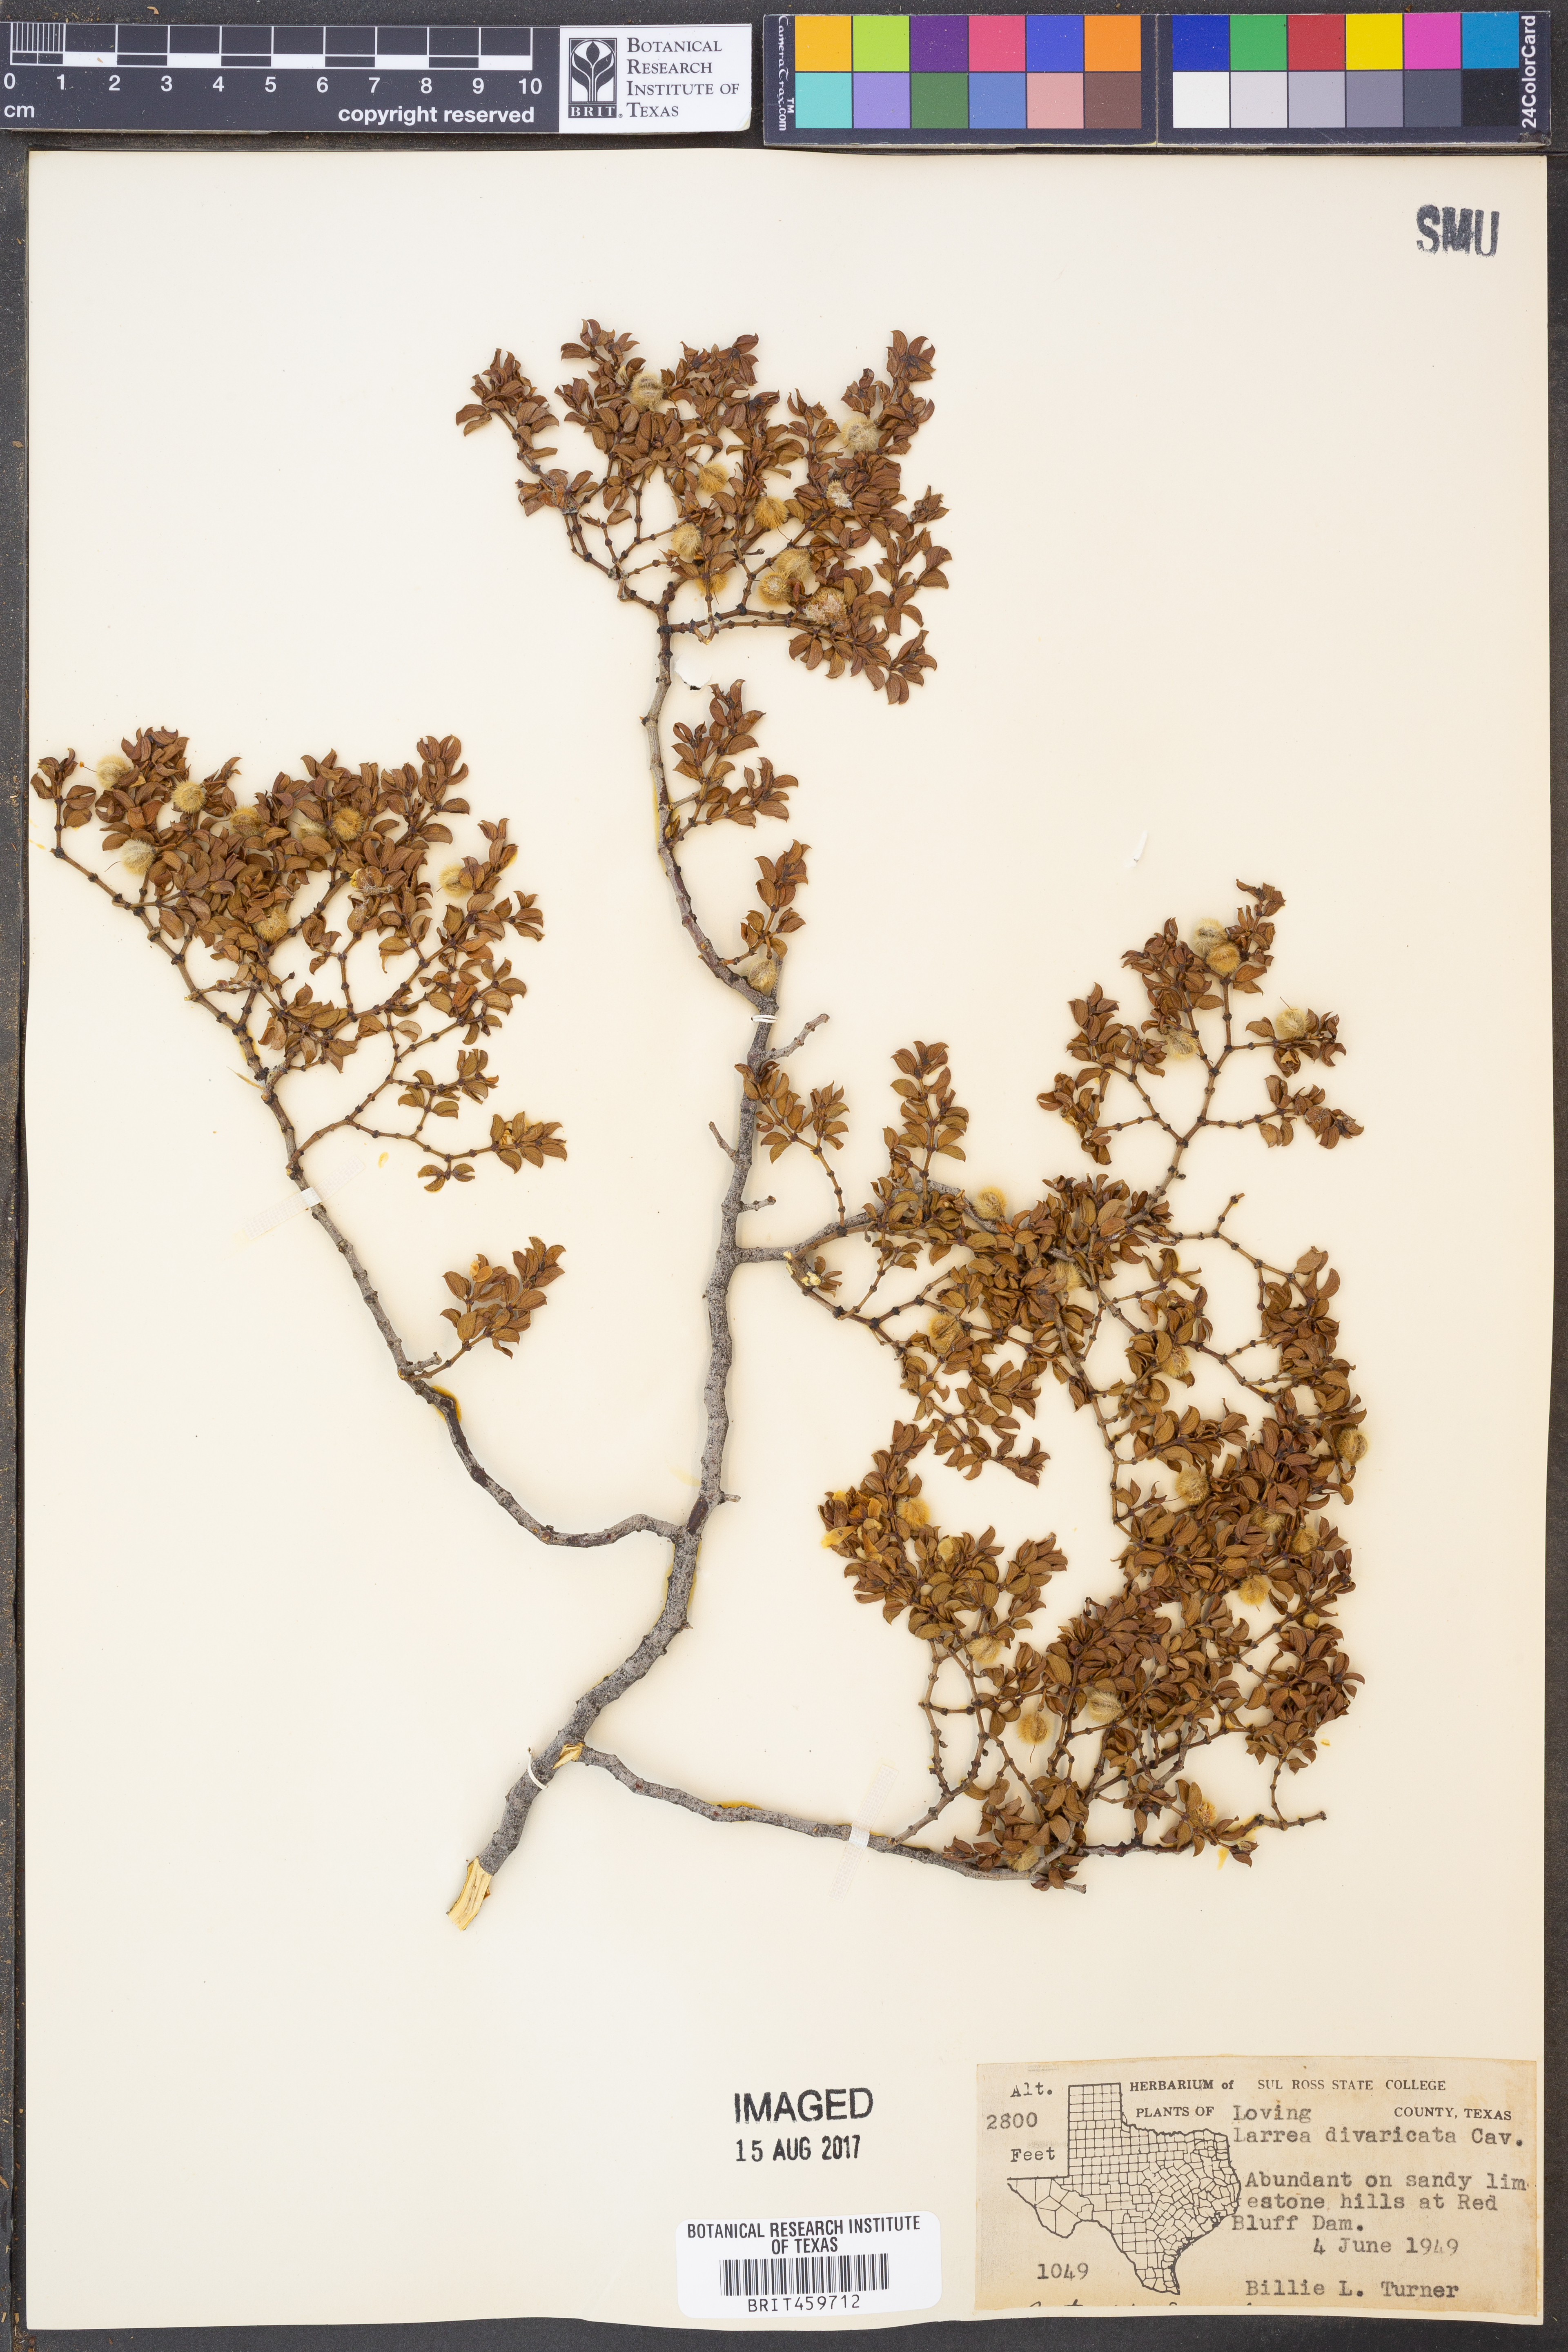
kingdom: Plantae
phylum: Tracheophyta
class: Magnoliopsida
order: Zygophyllales
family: Zygophyllaceae
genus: Larrea
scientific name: Larrea divaricata
